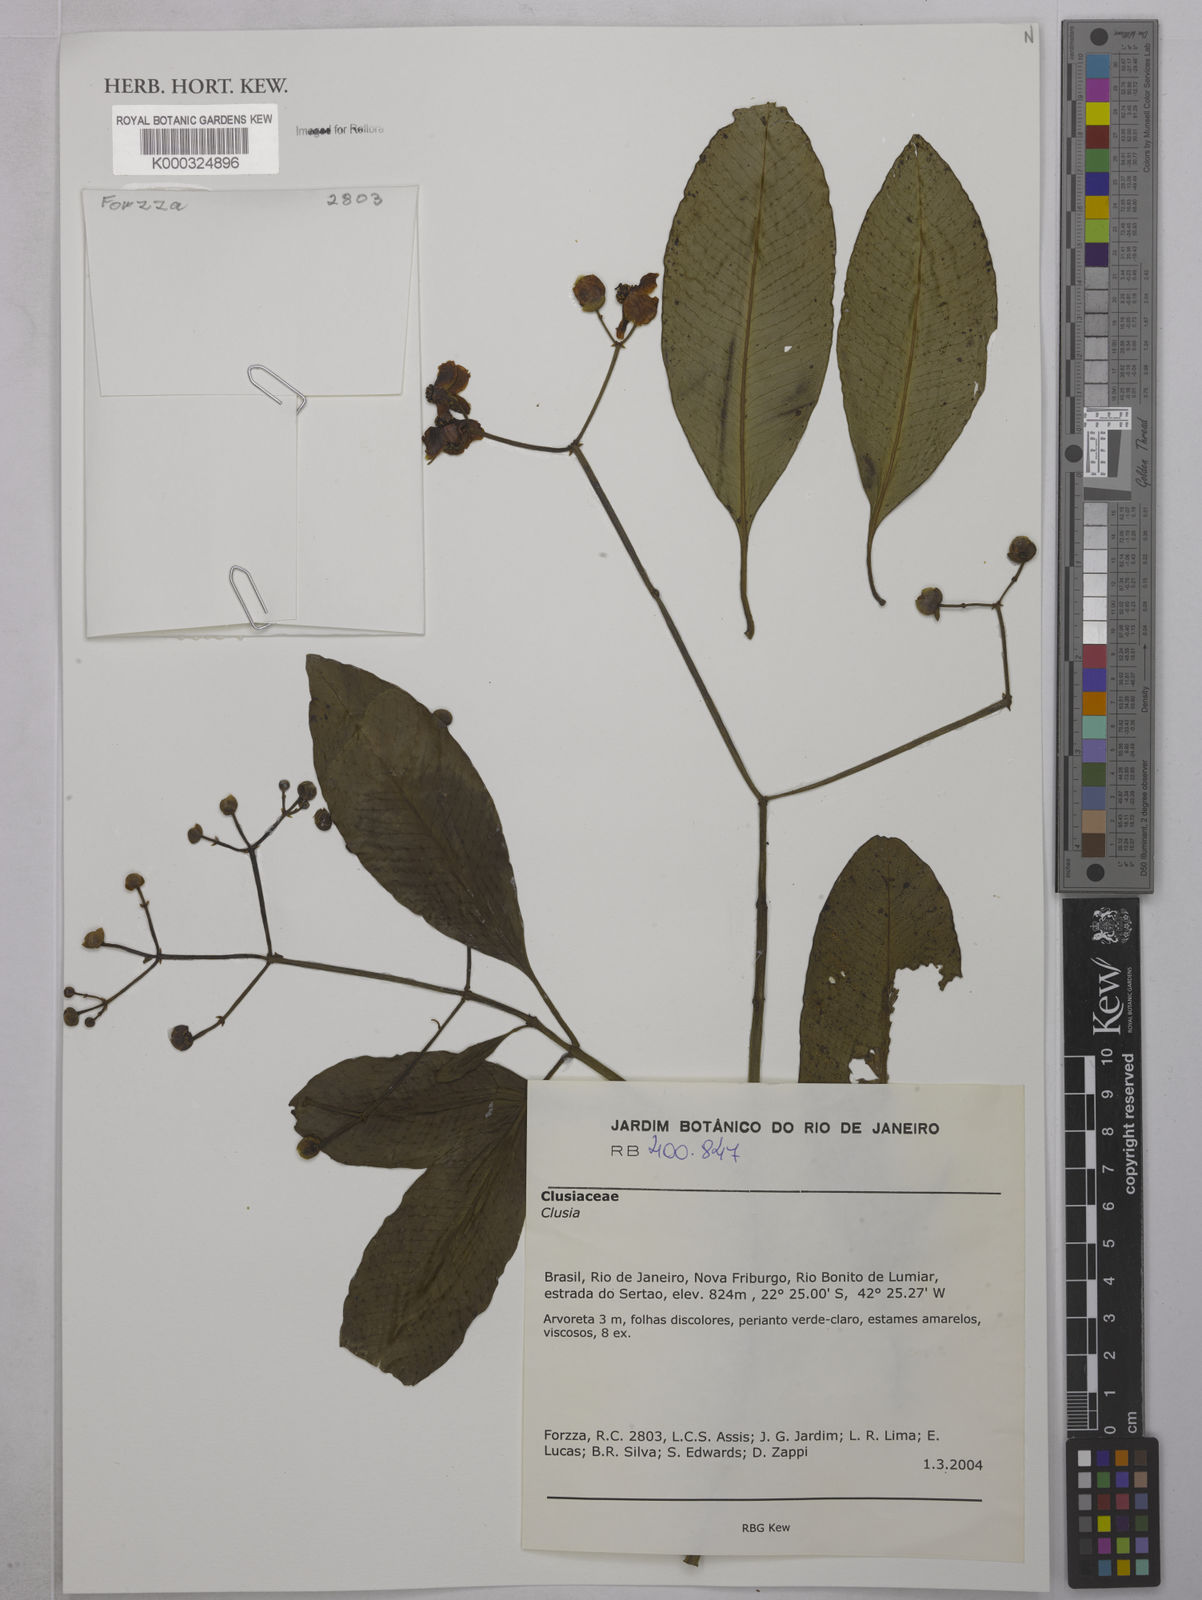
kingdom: Plantae
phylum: Tracheophyta
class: Magnoliopsida
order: Malpighiales
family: Clusiaceae
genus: Clusia
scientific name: Clusia
